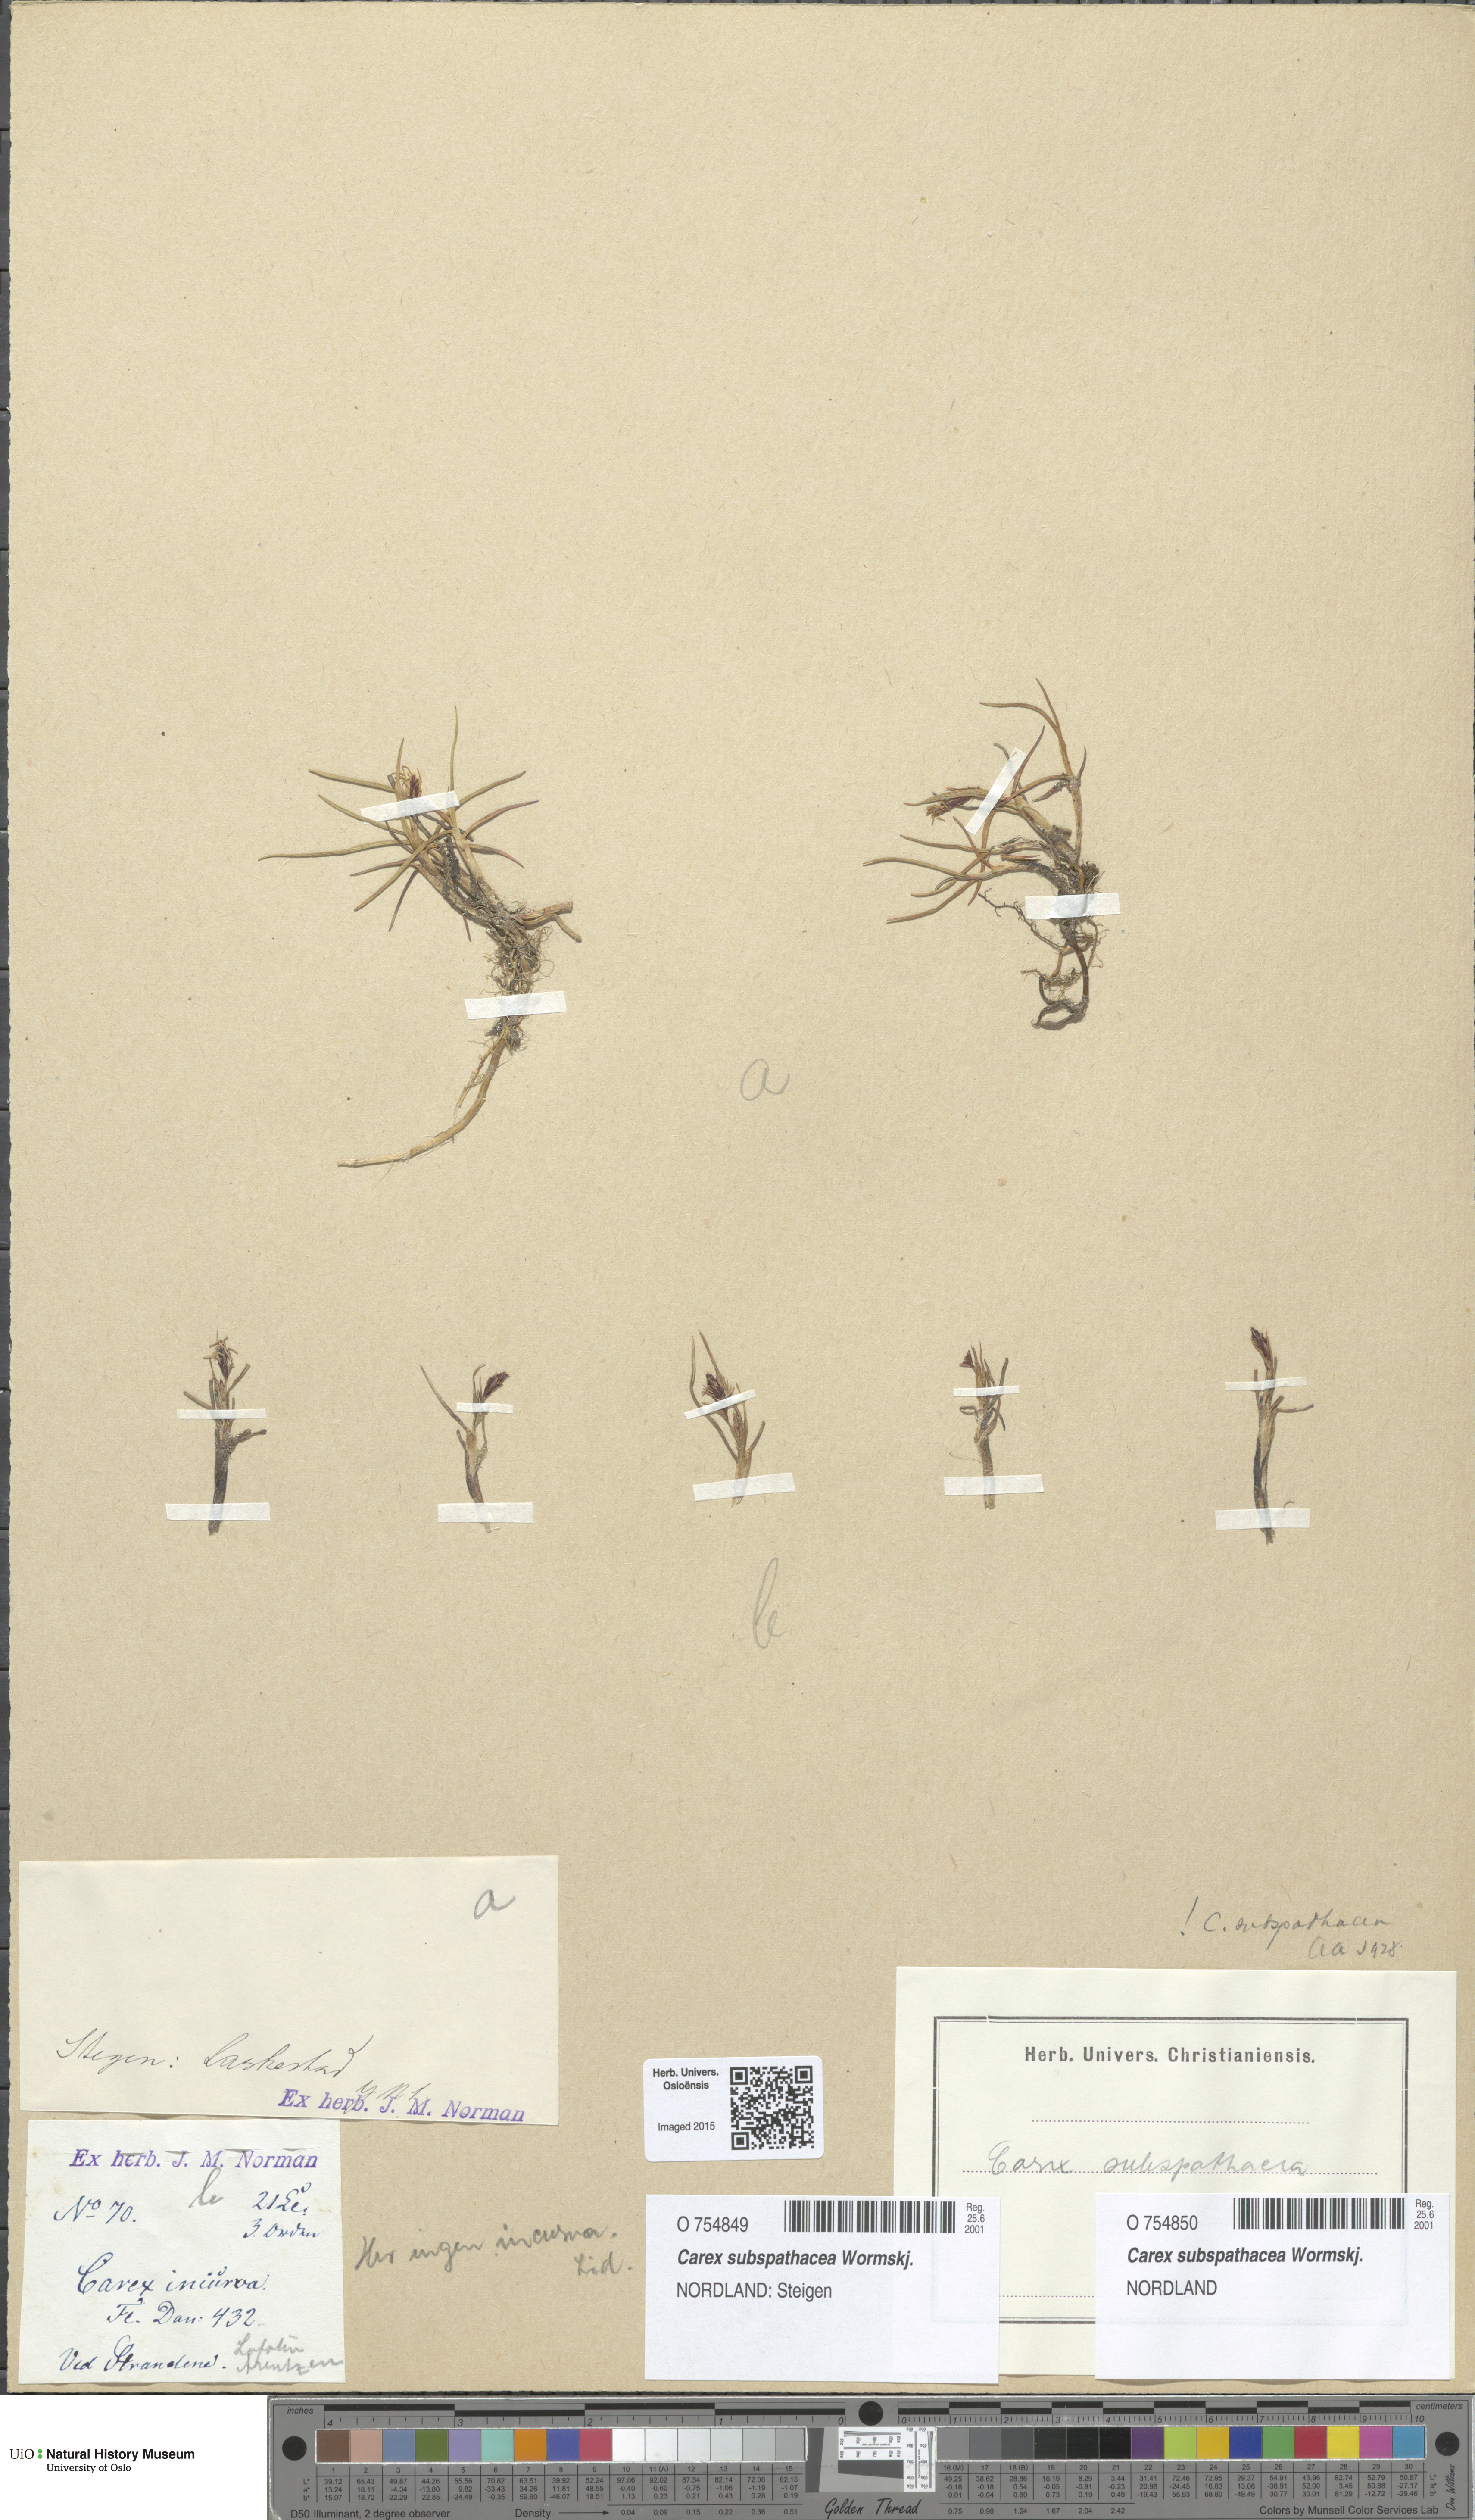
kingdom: Plantae
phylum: Tracheophyta
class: Liliopsida
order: Poales
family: Cyperaceae
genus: Carex
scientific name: Carex subspathacea
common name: Hoppner's sedge
